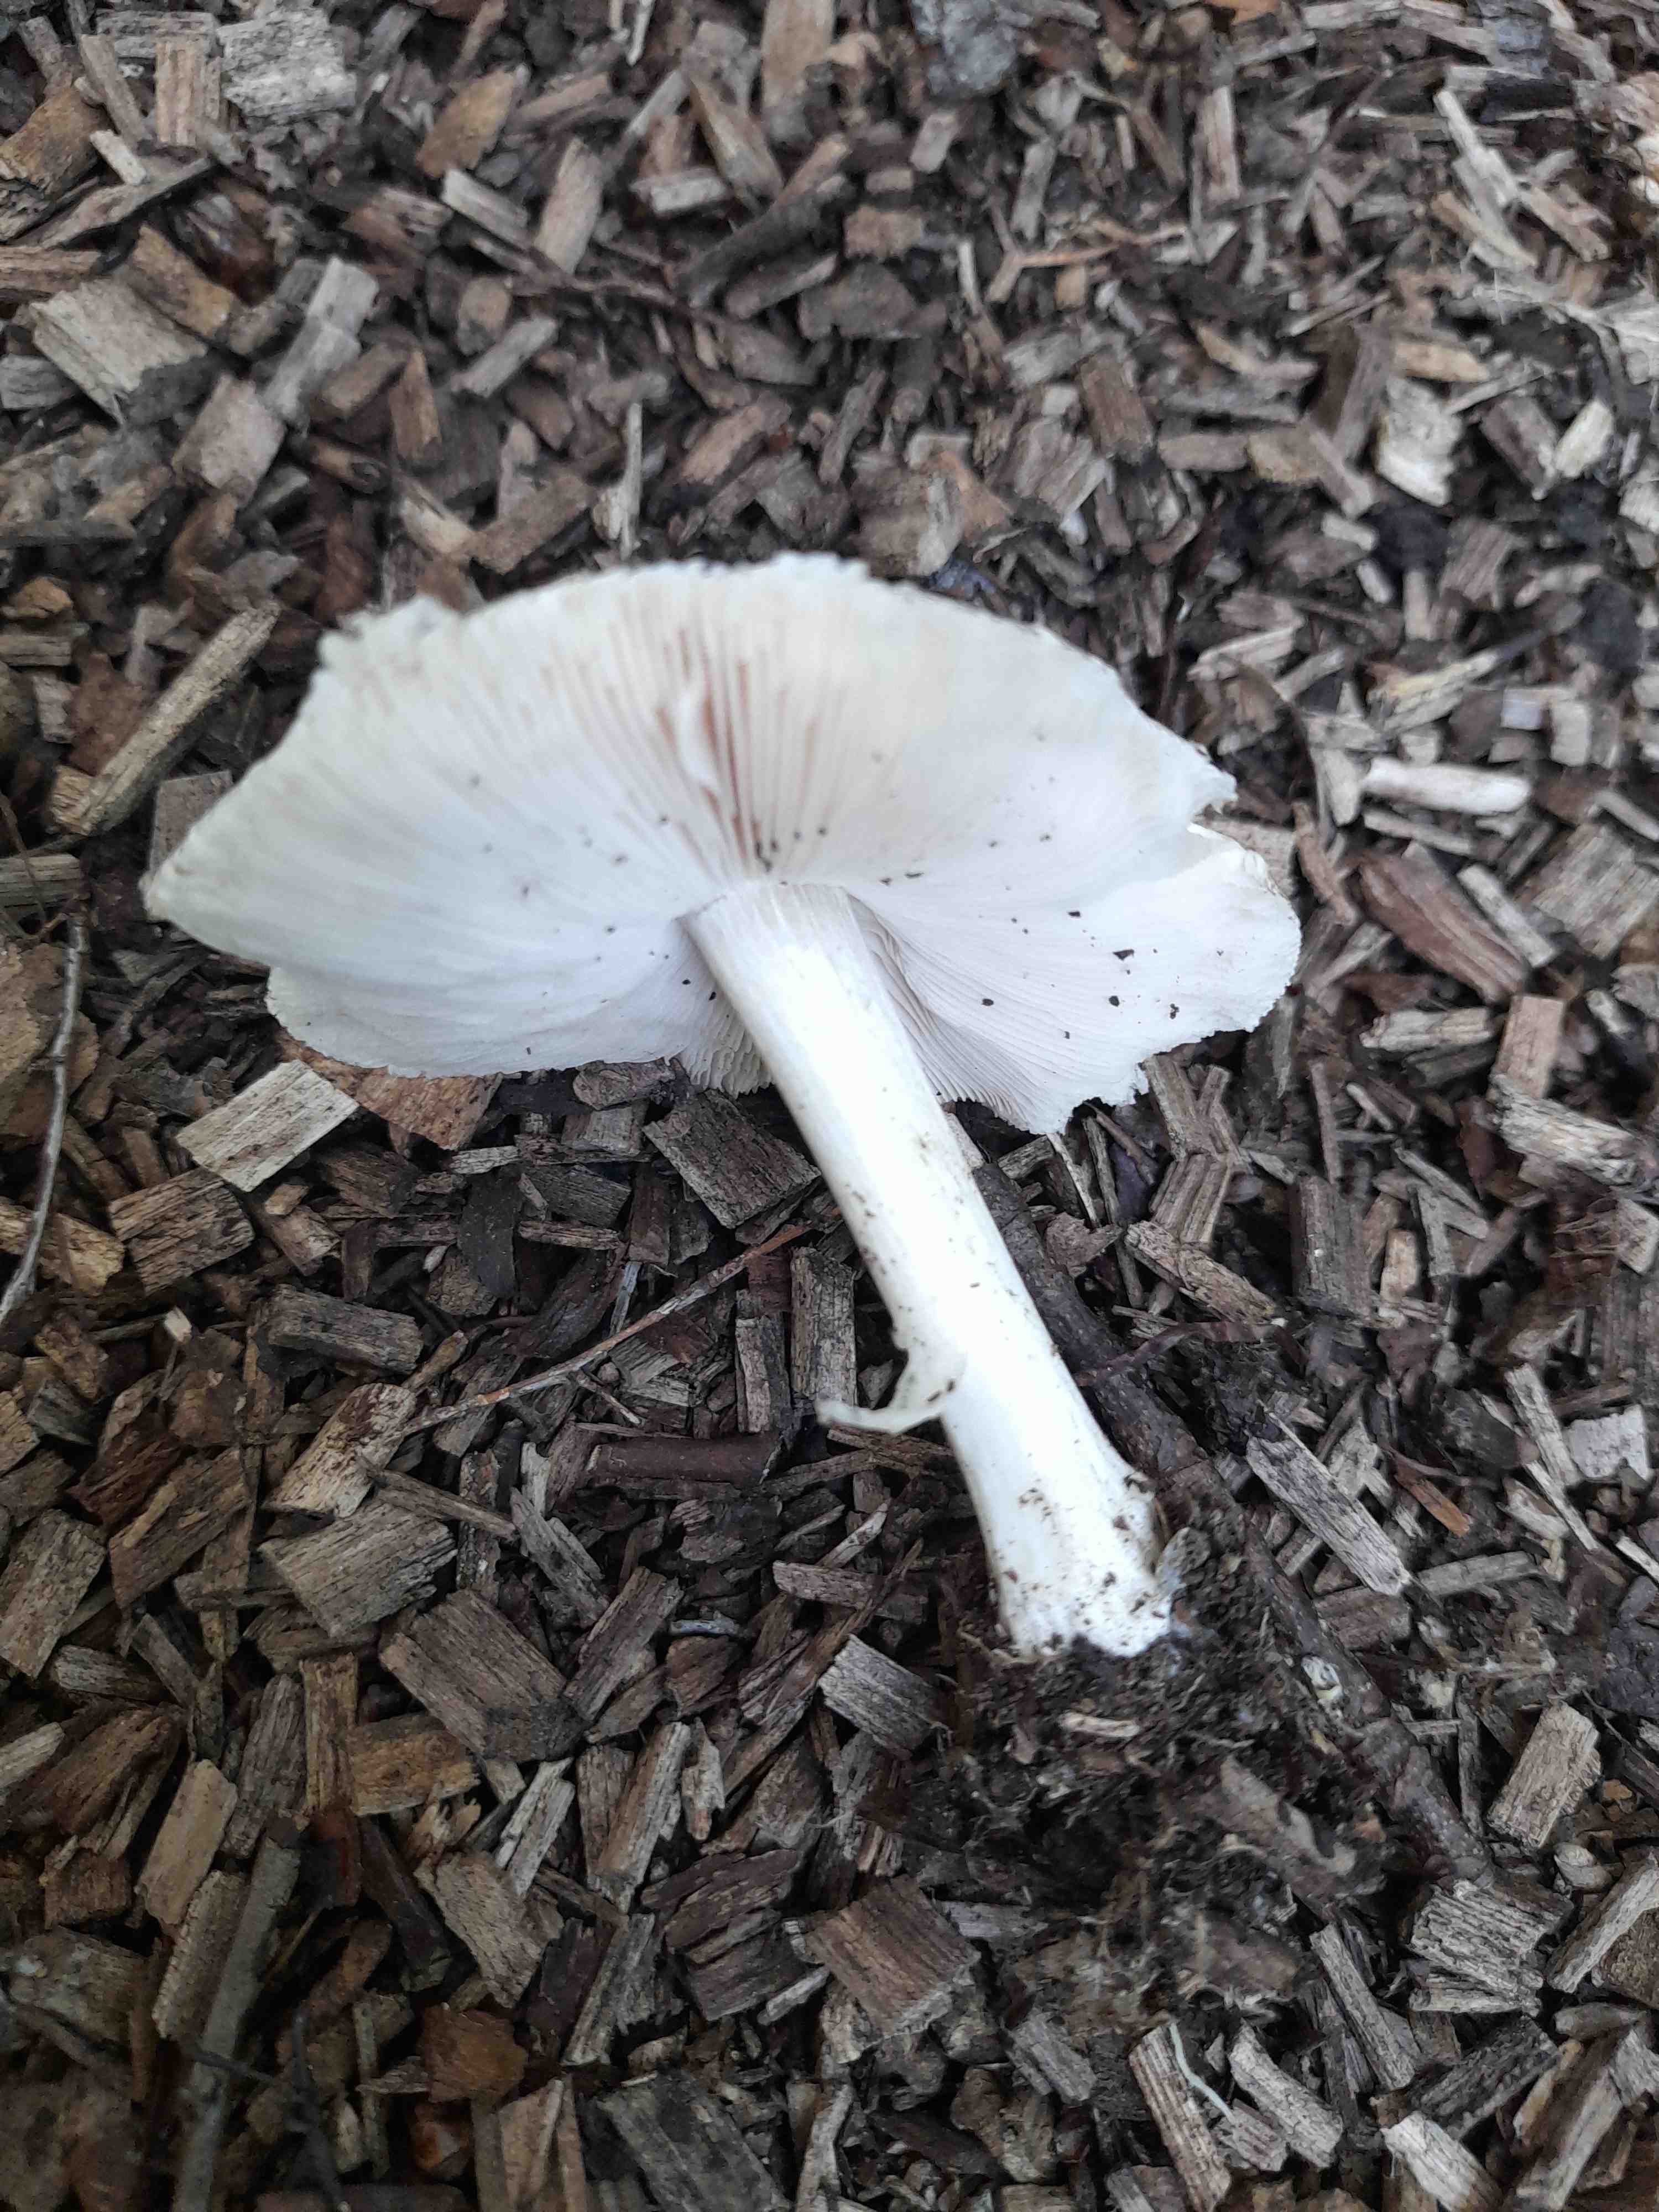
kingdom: Fungi
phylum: Basidiomycota
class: Agaricomycetes
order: Agaricales
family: Pluteaceae
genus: Volvopluteus
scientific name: Volvopluteus gloiocephalus
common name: høj posesvamp
